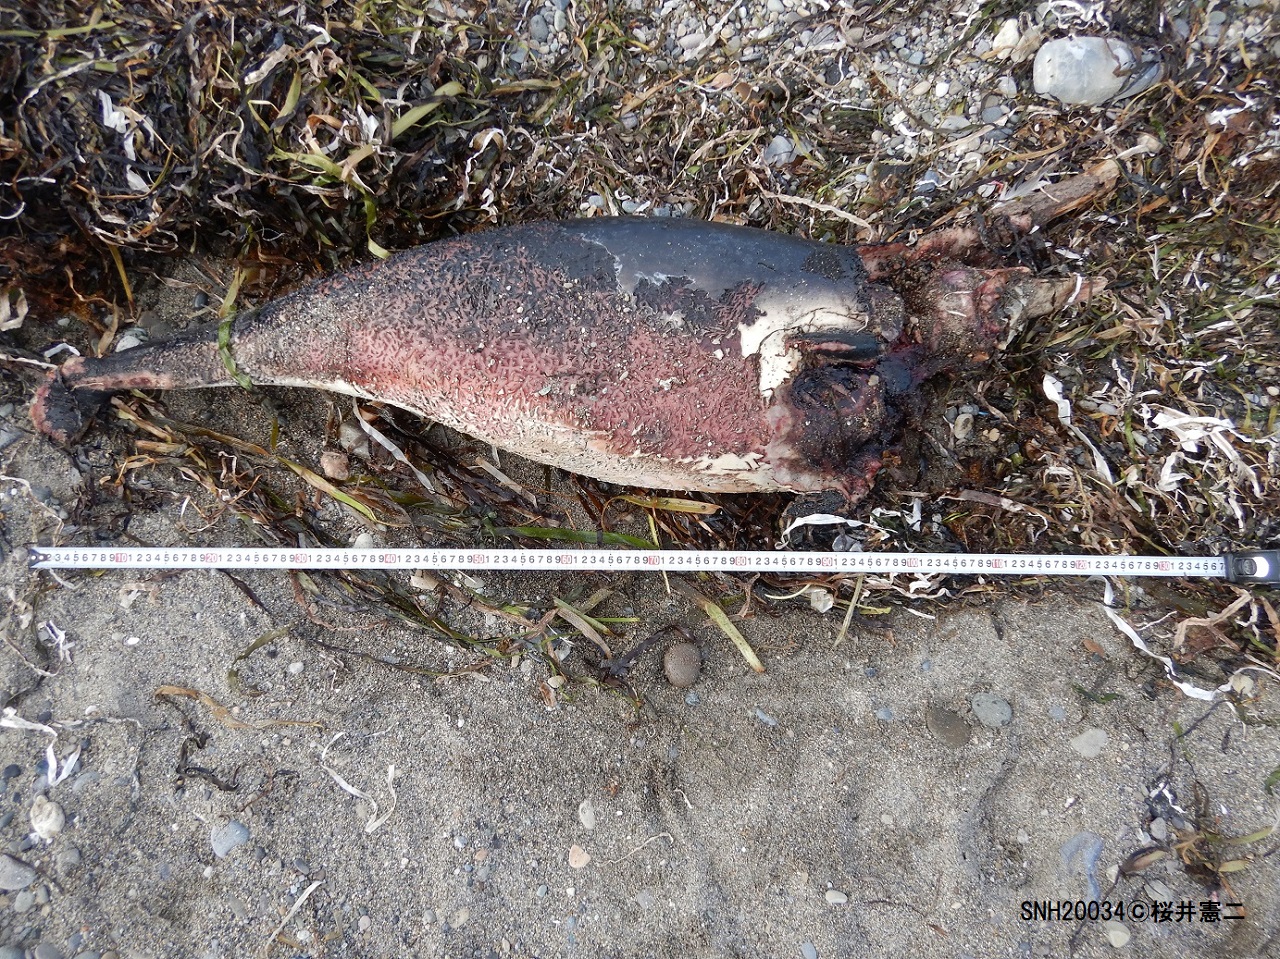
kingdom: Animalia
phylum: Chordata
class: Mammalia
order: Cetacea
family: Phocoenidae
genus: Phocoena
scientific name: Phocoena phocoena
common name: Harbour porpoise
